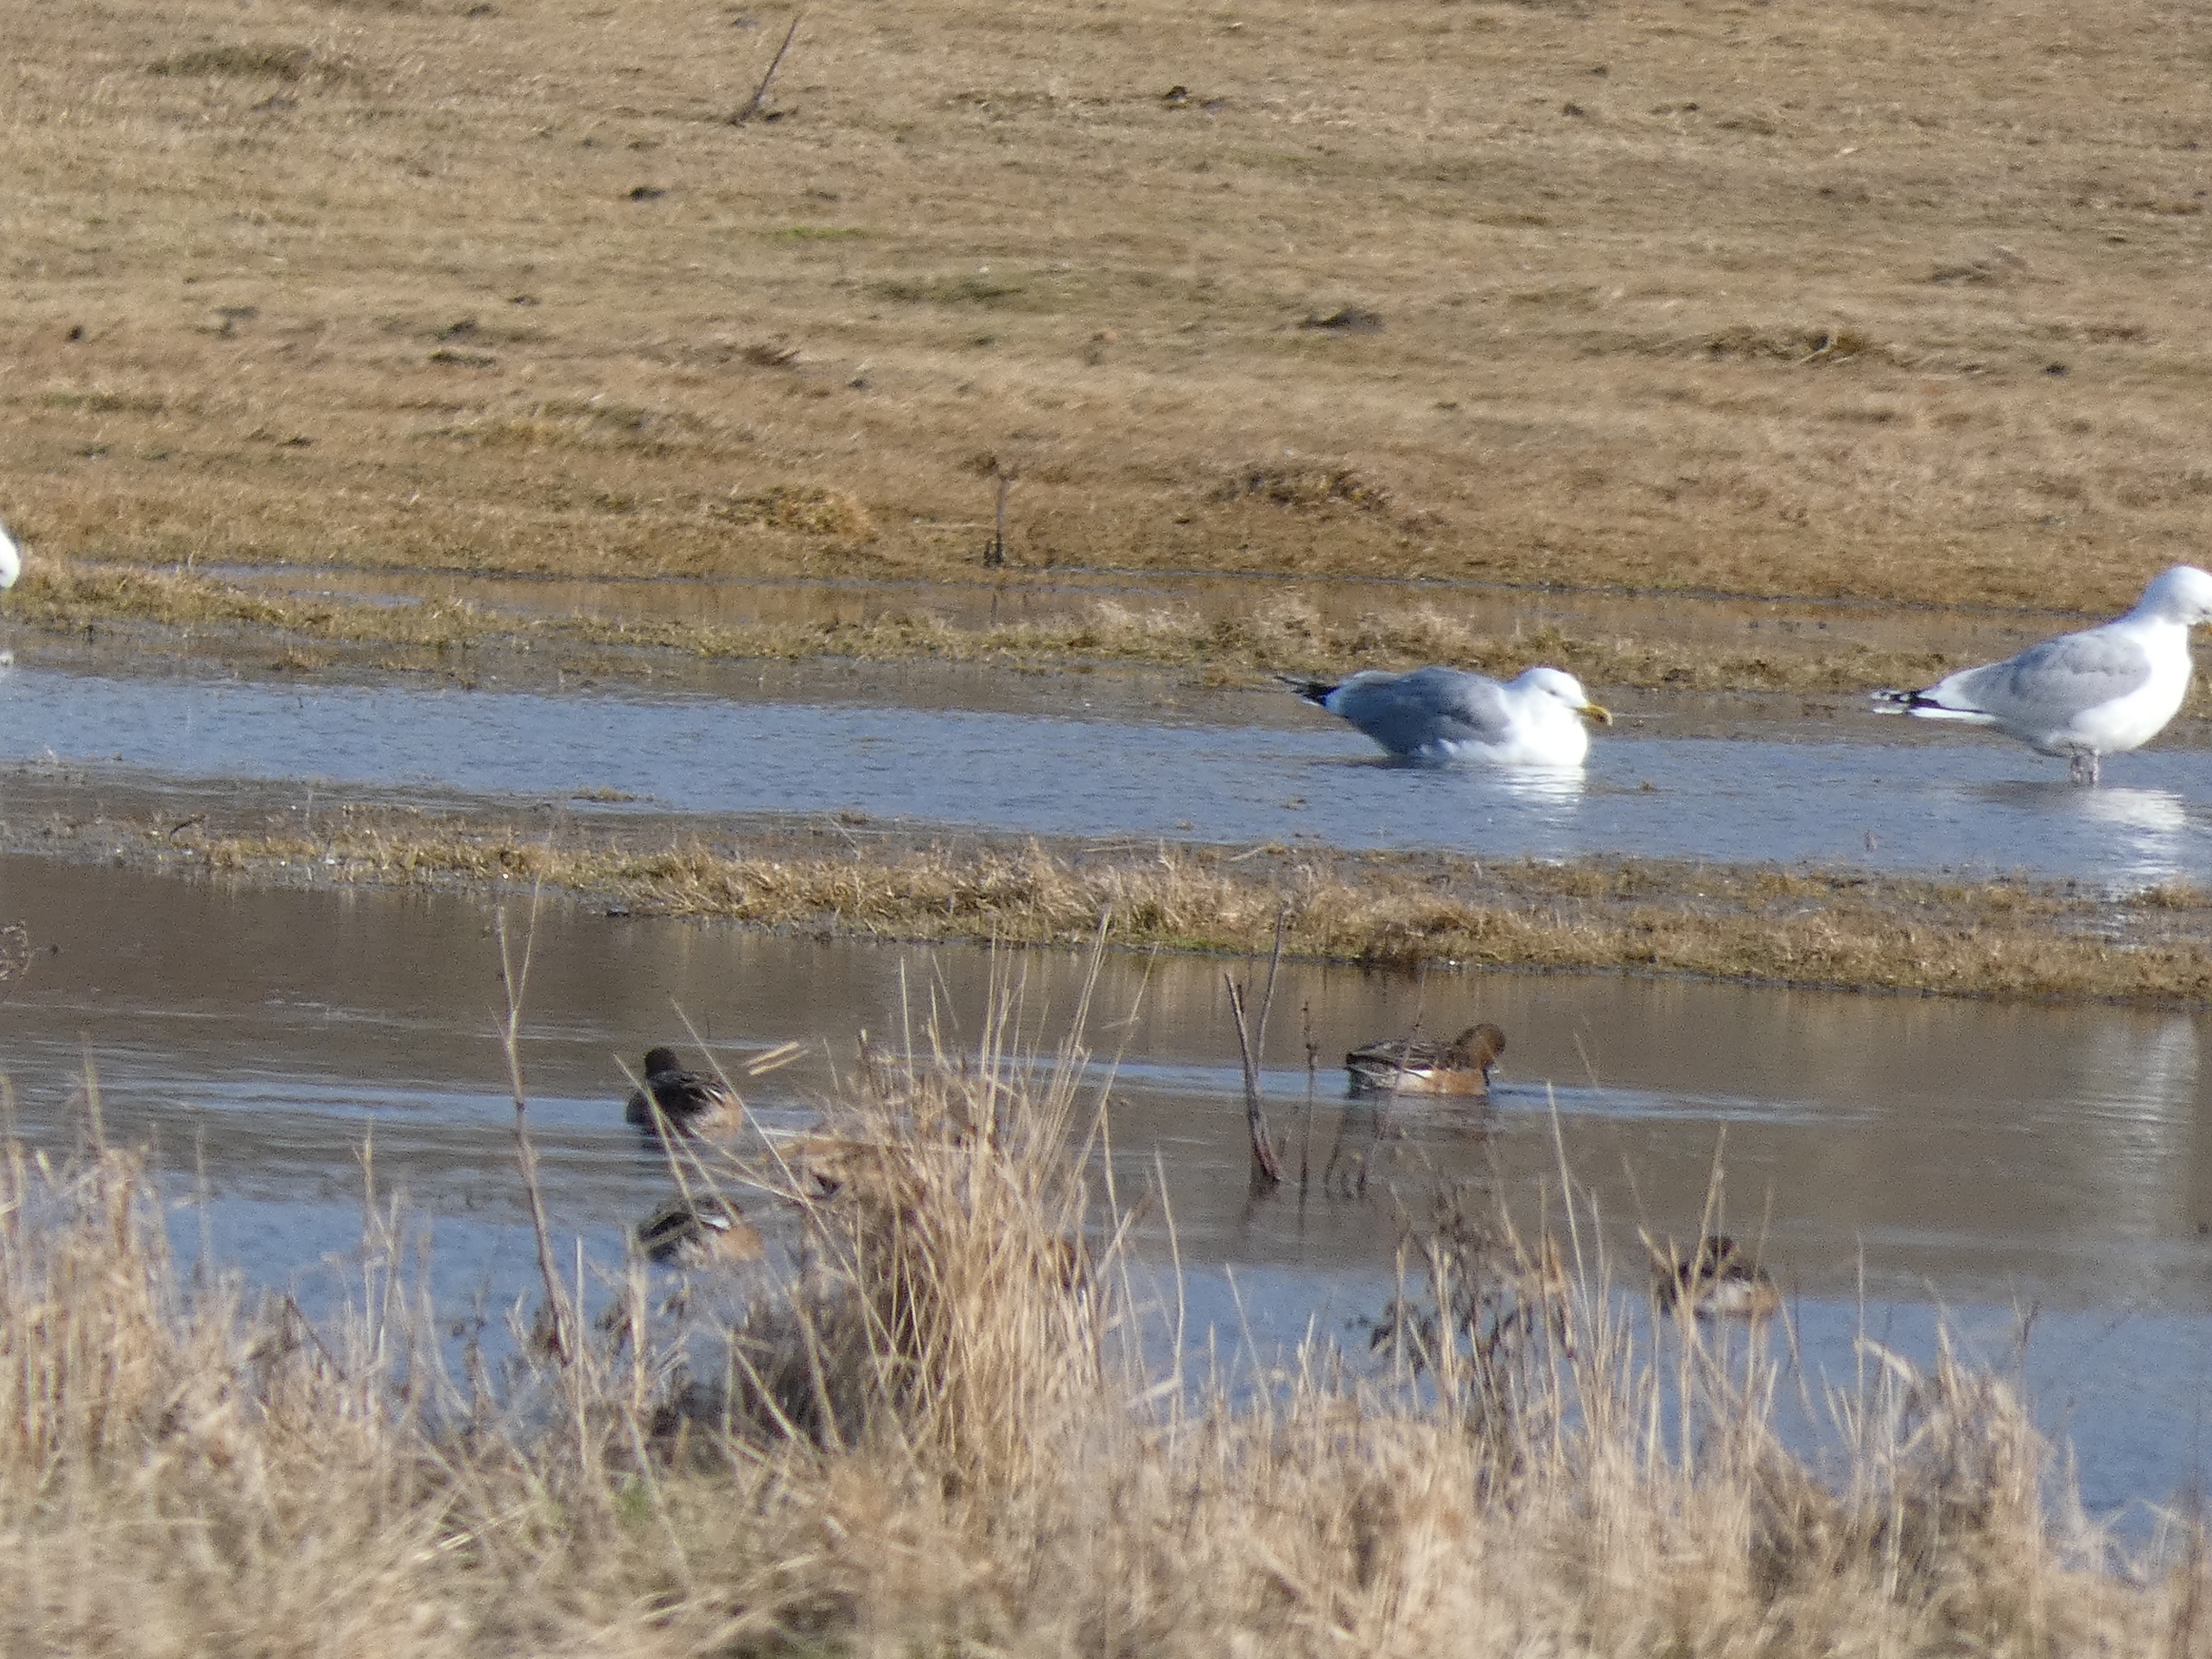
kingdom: Animalia
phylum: Chordata
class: Aves
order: Charadriiformes
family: Laridae
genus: Larus
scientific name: Larus argentatus
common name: Sølvmåge
